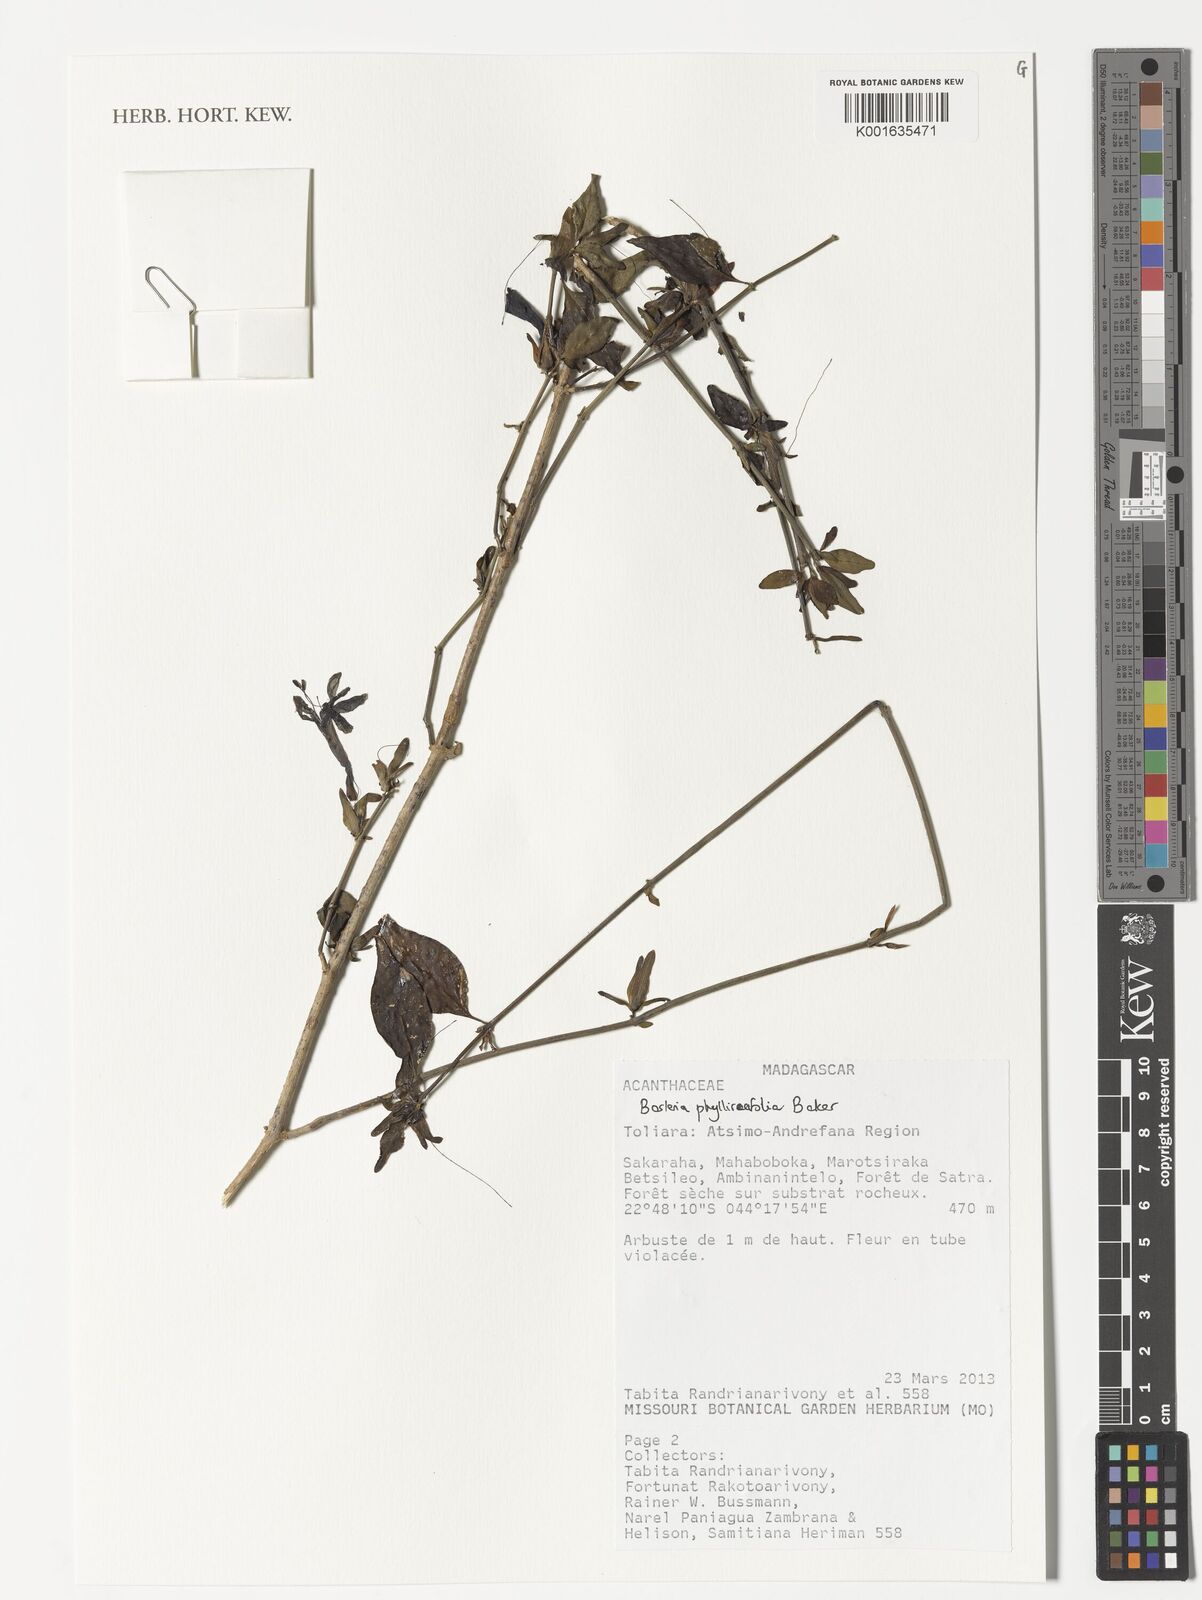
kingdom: Plantae
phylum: Tracheophyta
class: Magnoliopsida
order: Lamiales
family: Acanthaceae
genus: Barleria
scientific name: Barleria
